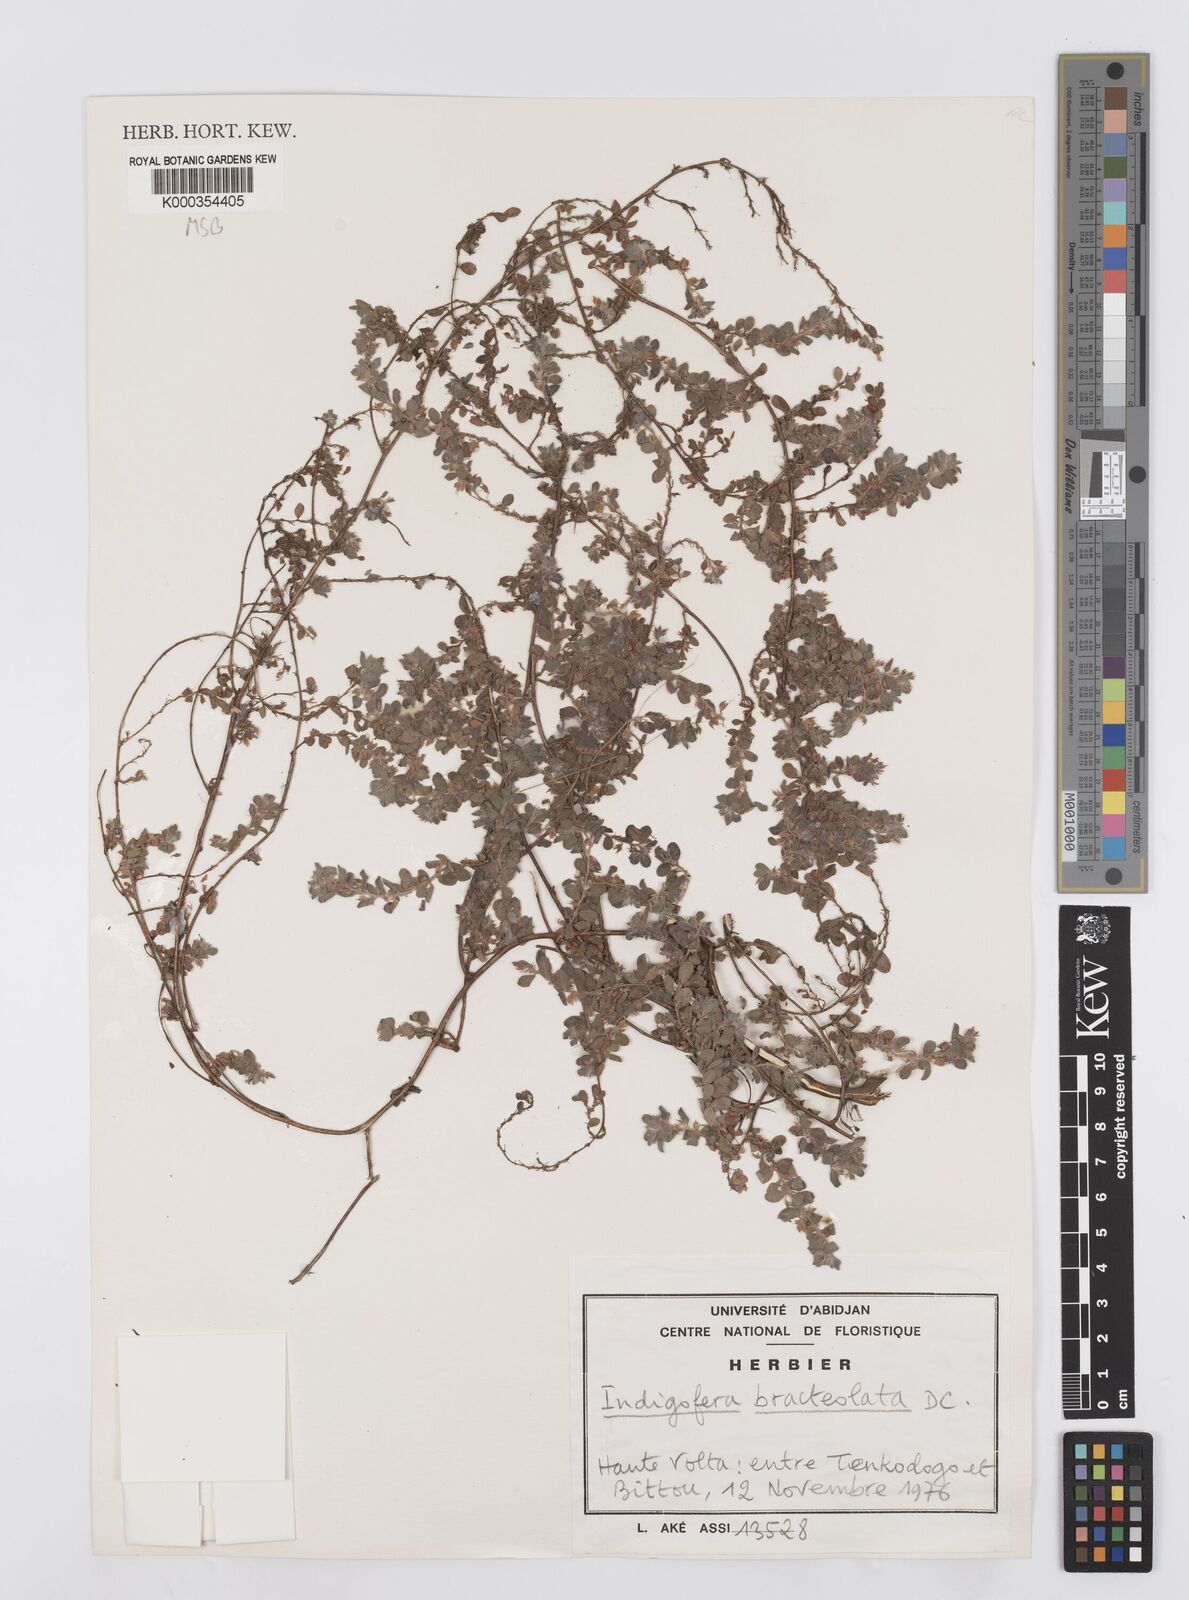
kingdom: Plantae
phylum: Tracheophyta
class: Magnoliopsida
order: Fabales
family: Fabaceae
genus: Indigofera
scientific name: Indigofera bracteolata
